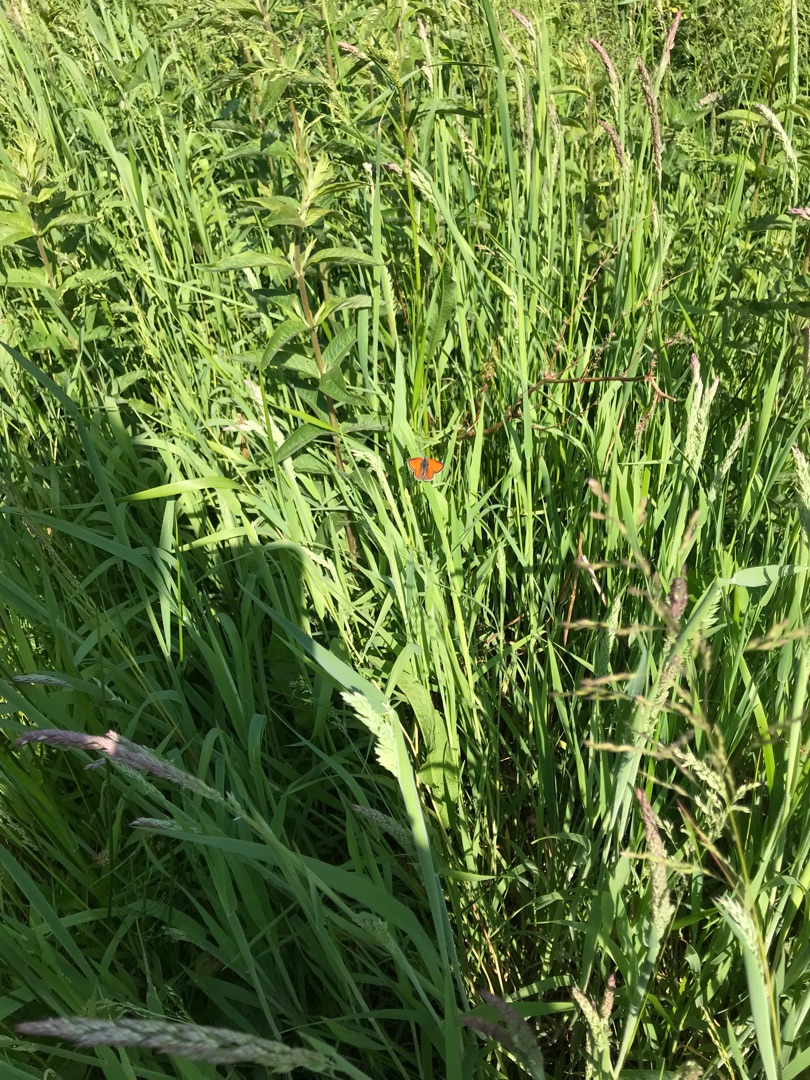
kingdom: Animalia
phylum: Arthropoda
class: Insecta
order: Lepidoptera
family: Lycaenidae
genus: Palaeochrysophanus
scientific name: Palaeochrysophanus hippothoe
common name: Violetrandet ildfugl
